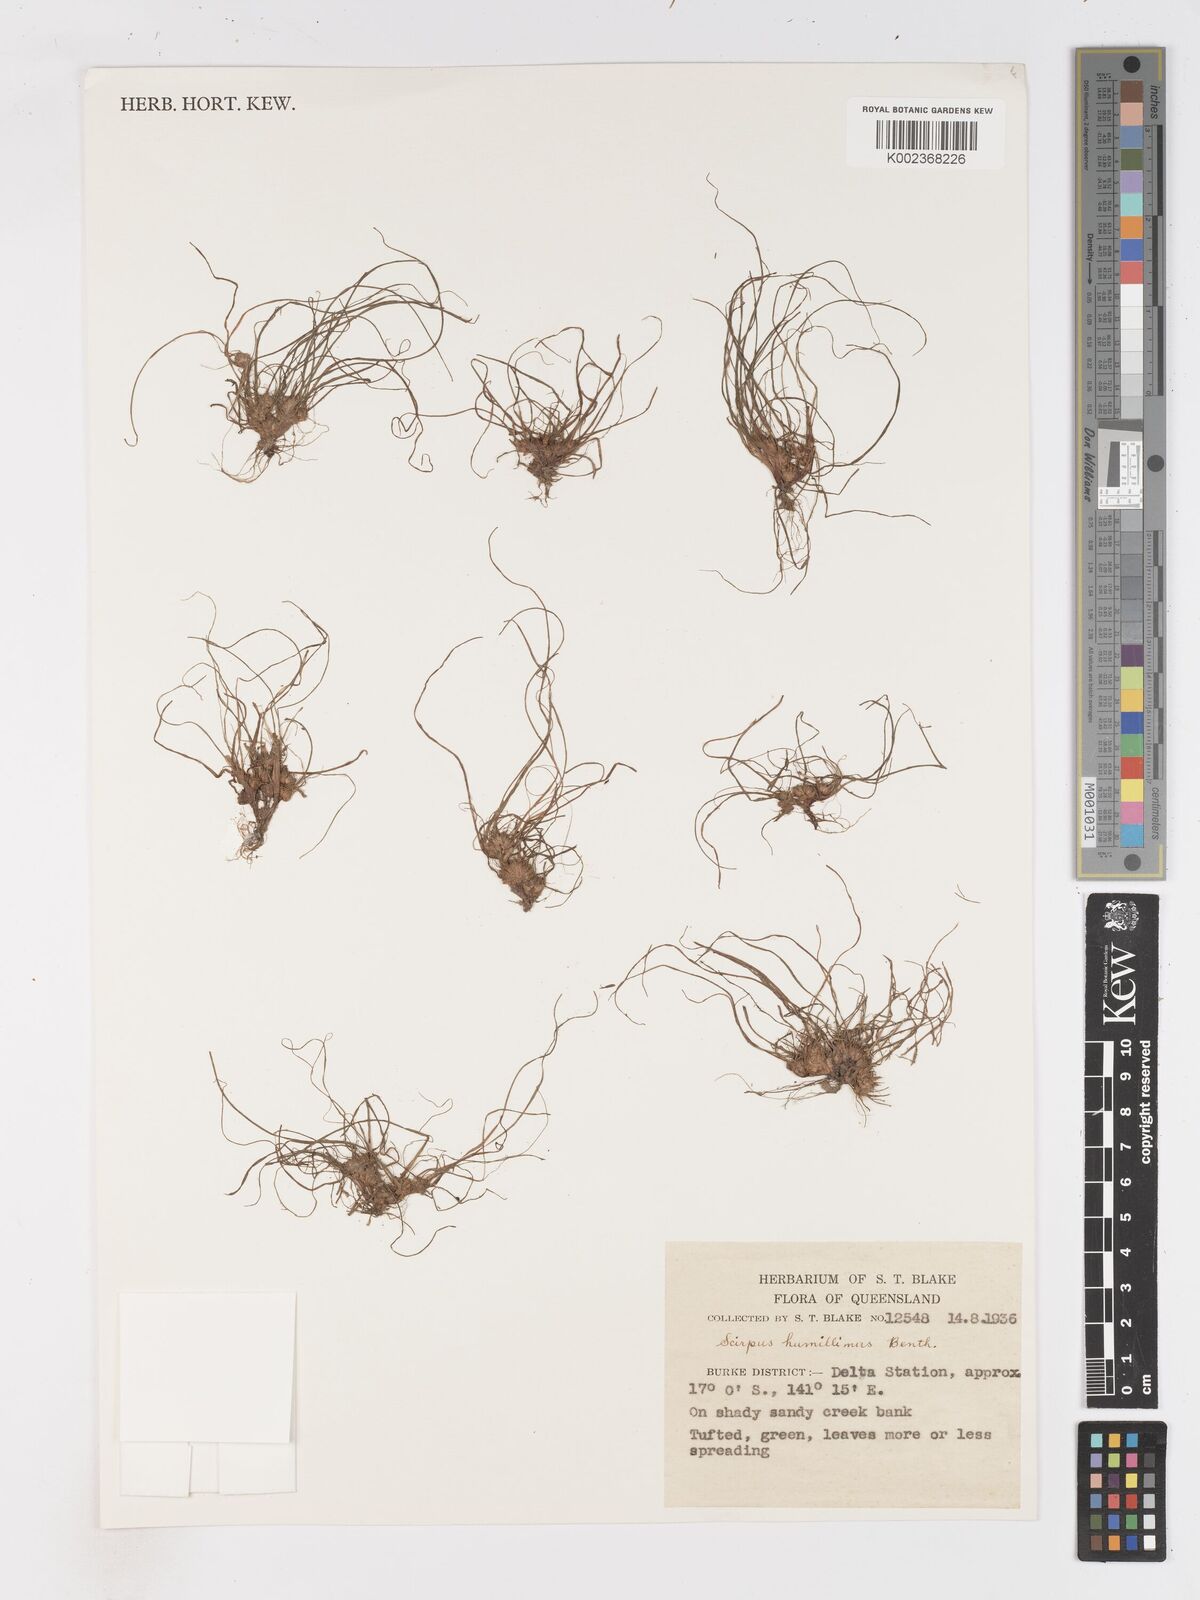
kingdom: Plantae
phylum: Tracheophyta
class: Liliopsida
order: Poales
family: Cyperaceae
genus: Schoenoplectiella
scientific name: Schoenoplectiella humillima
